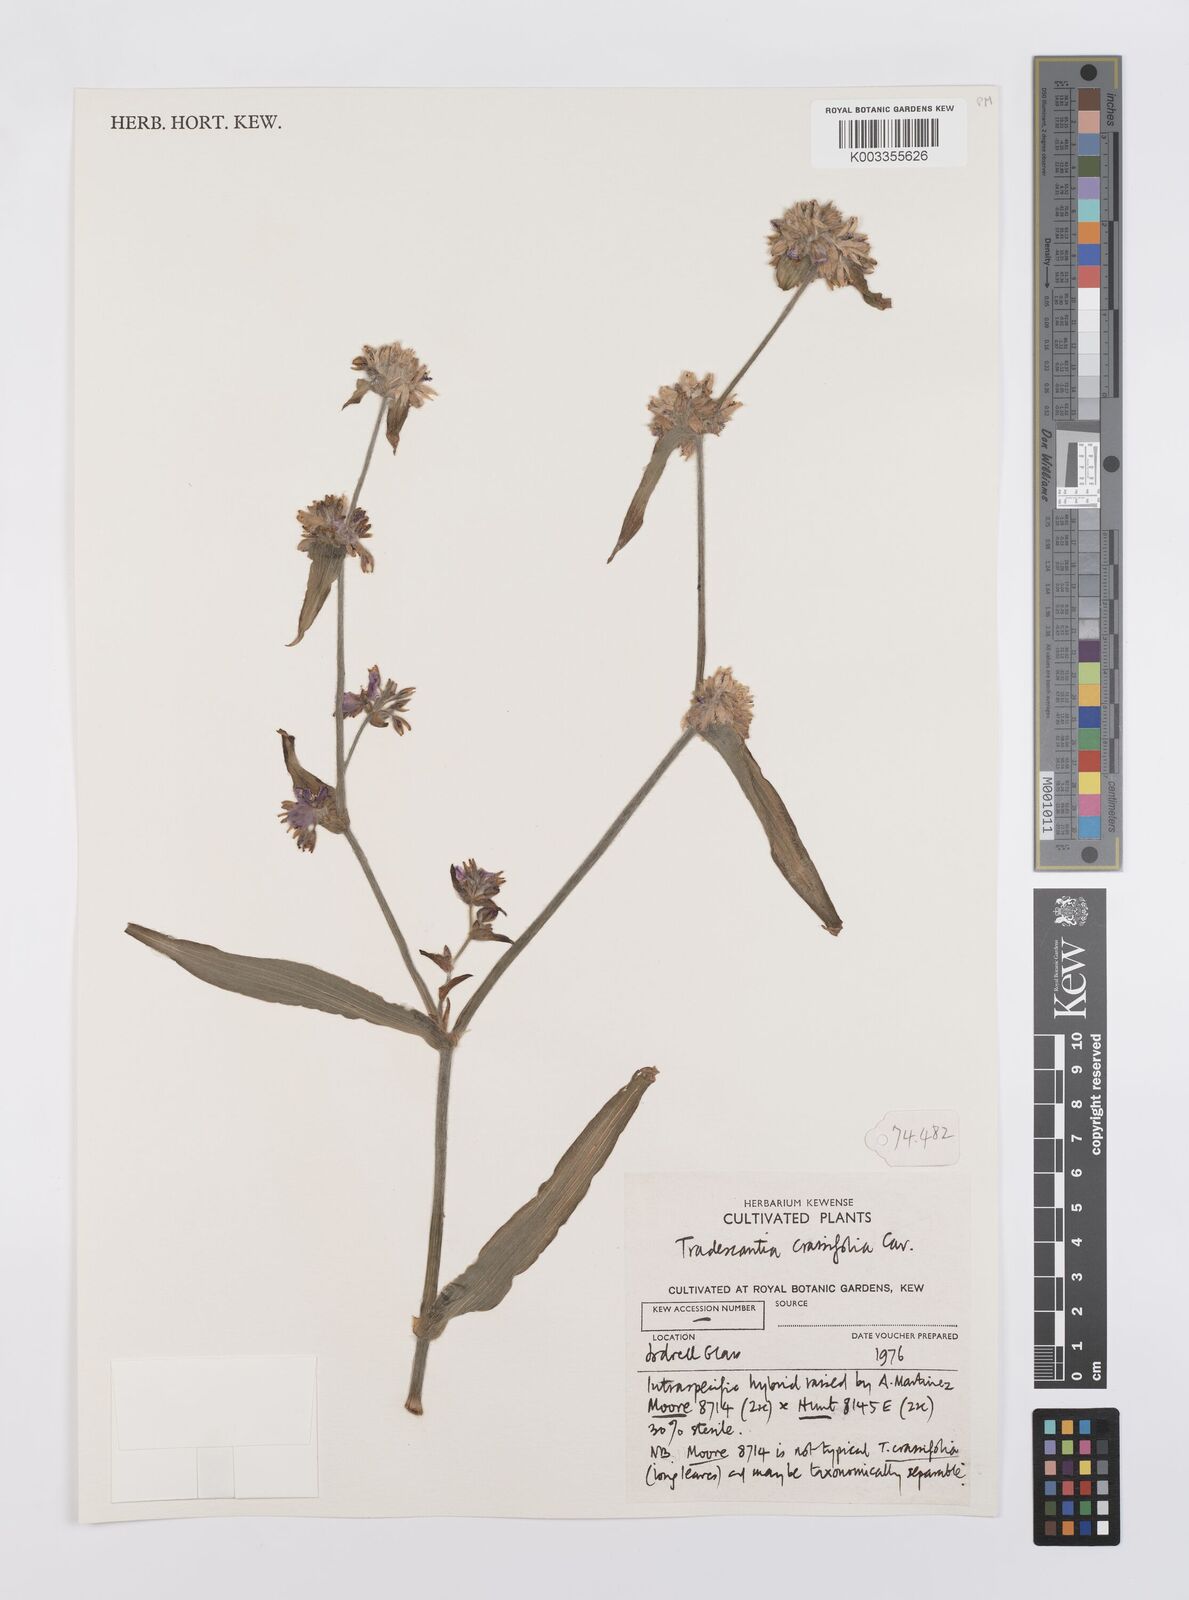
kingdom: Plantae
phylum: Tracheophyta
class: Liliopsida
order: Commelinales
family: Commelinaceae
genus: Tradescantia
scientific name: Tradescantia
